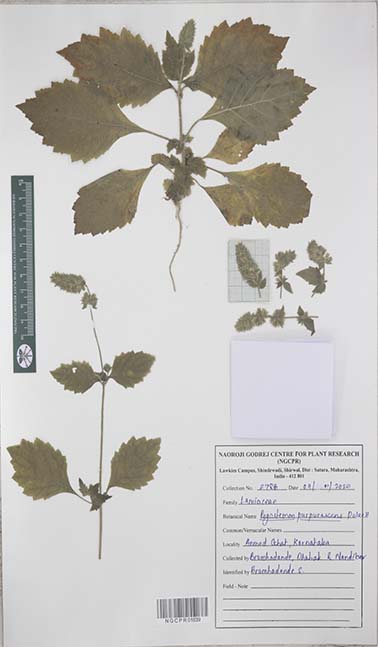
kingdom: Plantae
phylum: Tracheophyta
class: Magnoliopsida
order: Lamiales
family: Lamiaceae
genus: Pogostemon
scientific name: Pogostemon purpurascens
